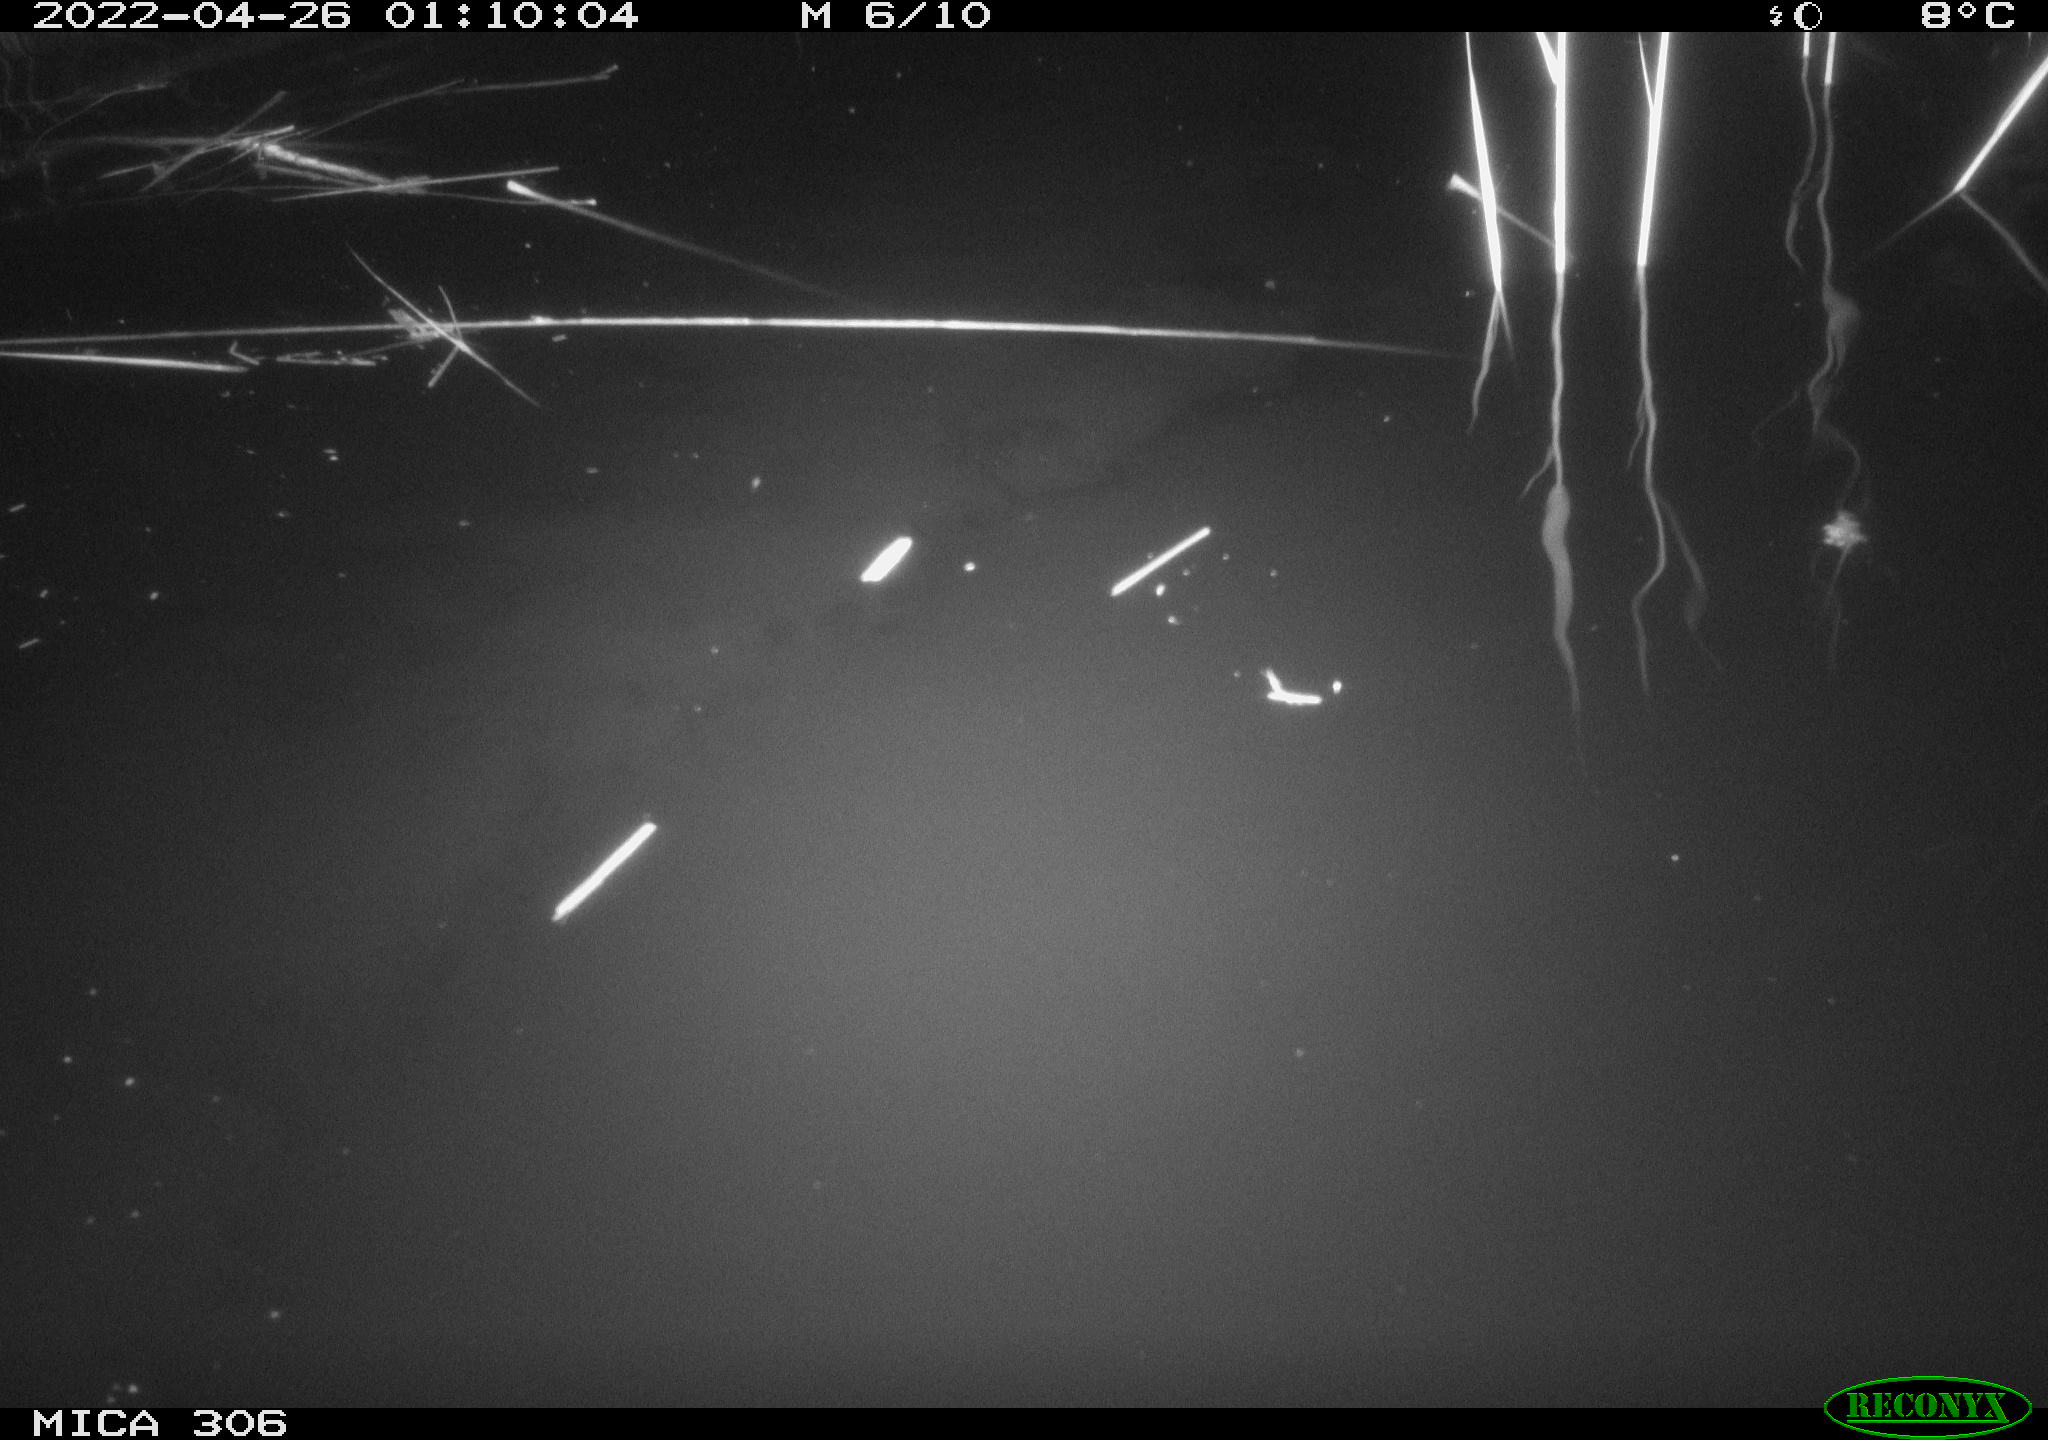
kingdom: Animalia
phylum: Chordata
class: Mammalia
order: Rodentia
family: Muridae
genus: Rattus
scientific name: Rattus norvegicus
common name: Brown rat
